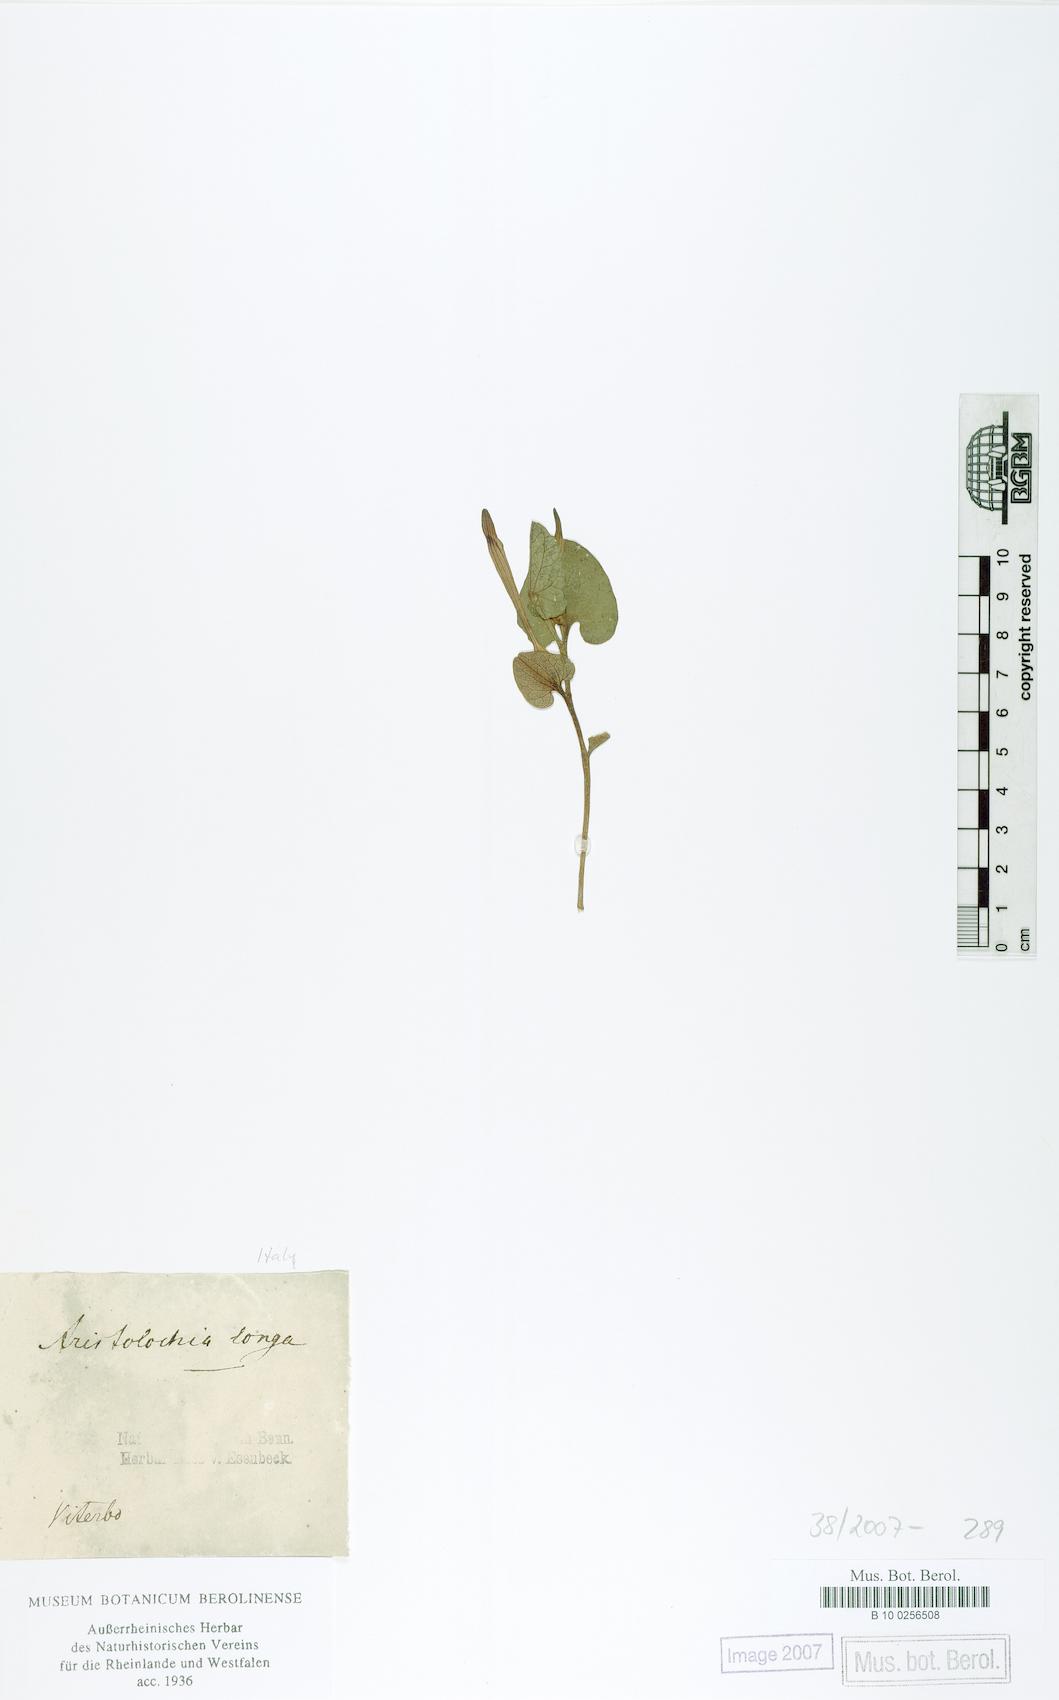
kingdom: Plantae
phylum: Tracheophyta
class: Magnoliopsida
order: Piperales
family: Aristolochiaceae
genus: Aristolochia
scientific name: Aristolochia fontanesii
